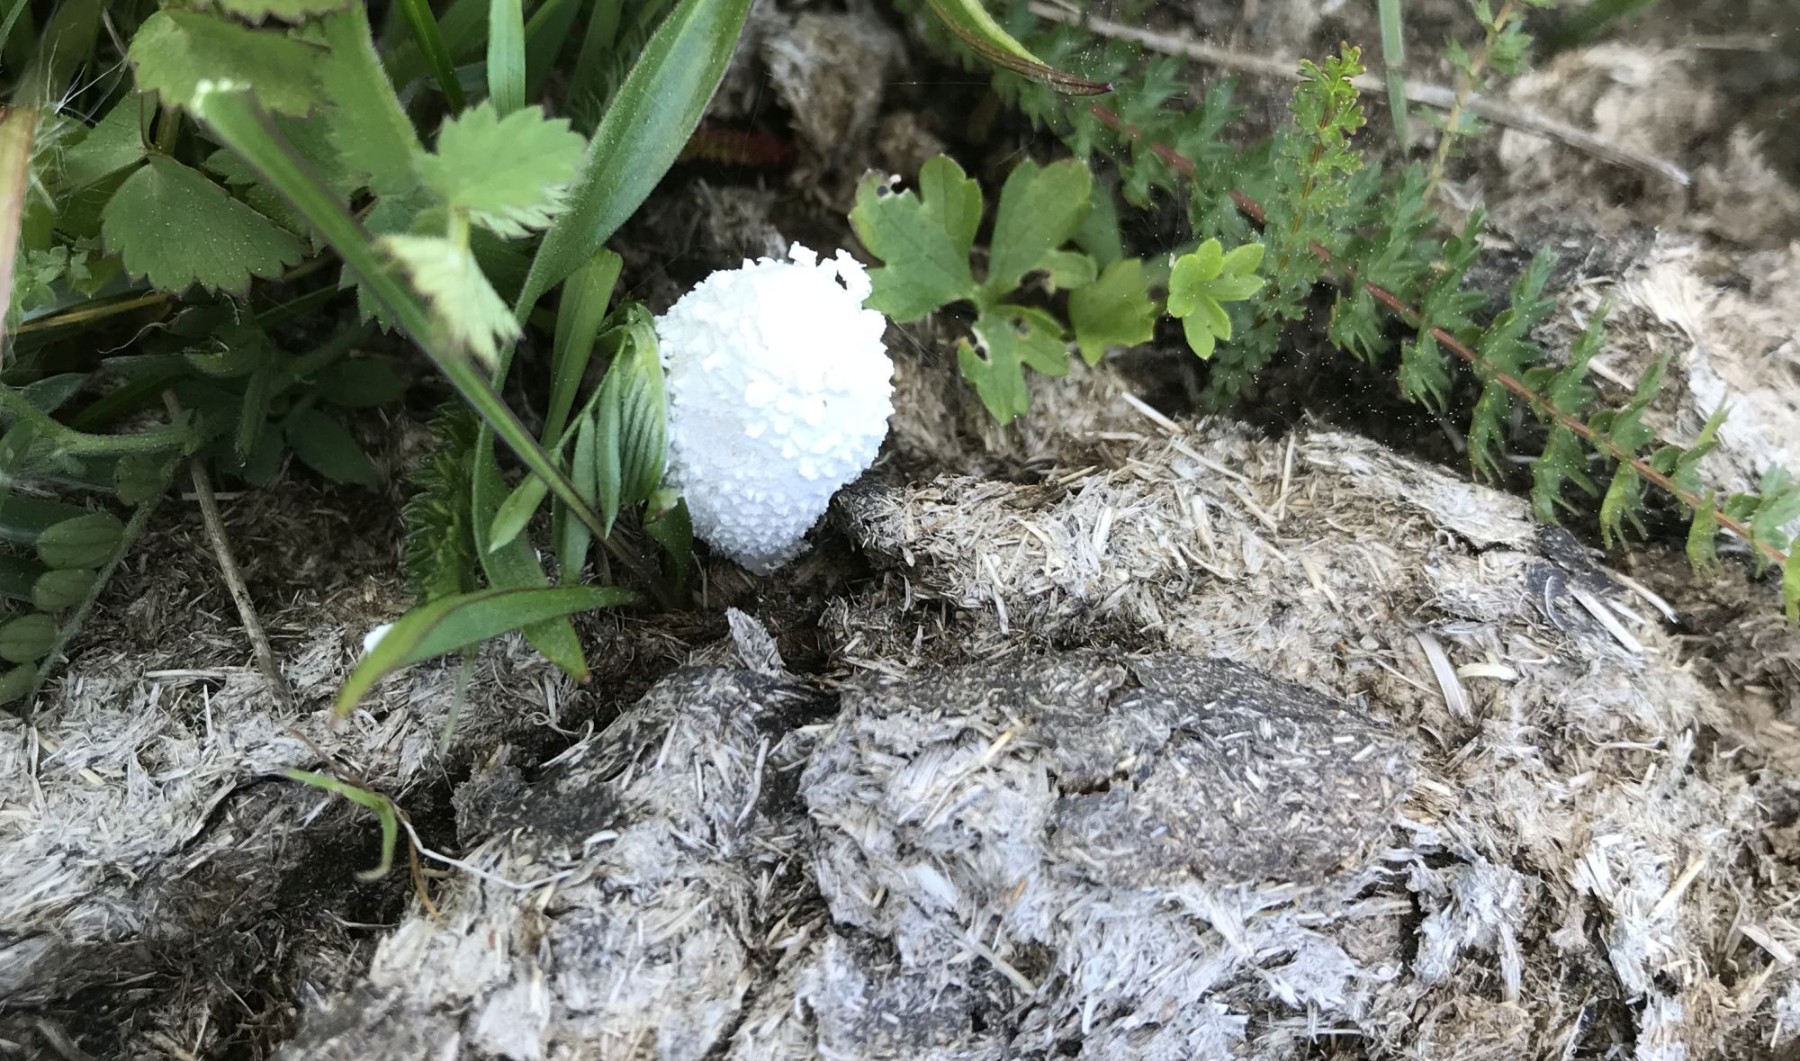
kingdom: Fungi
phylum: Basidiomycota
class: Agaricomycetes
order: Agaricales
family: Psathyrellaceae
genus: Coprinopsis
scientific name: Coprinopsis
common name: blækhat
